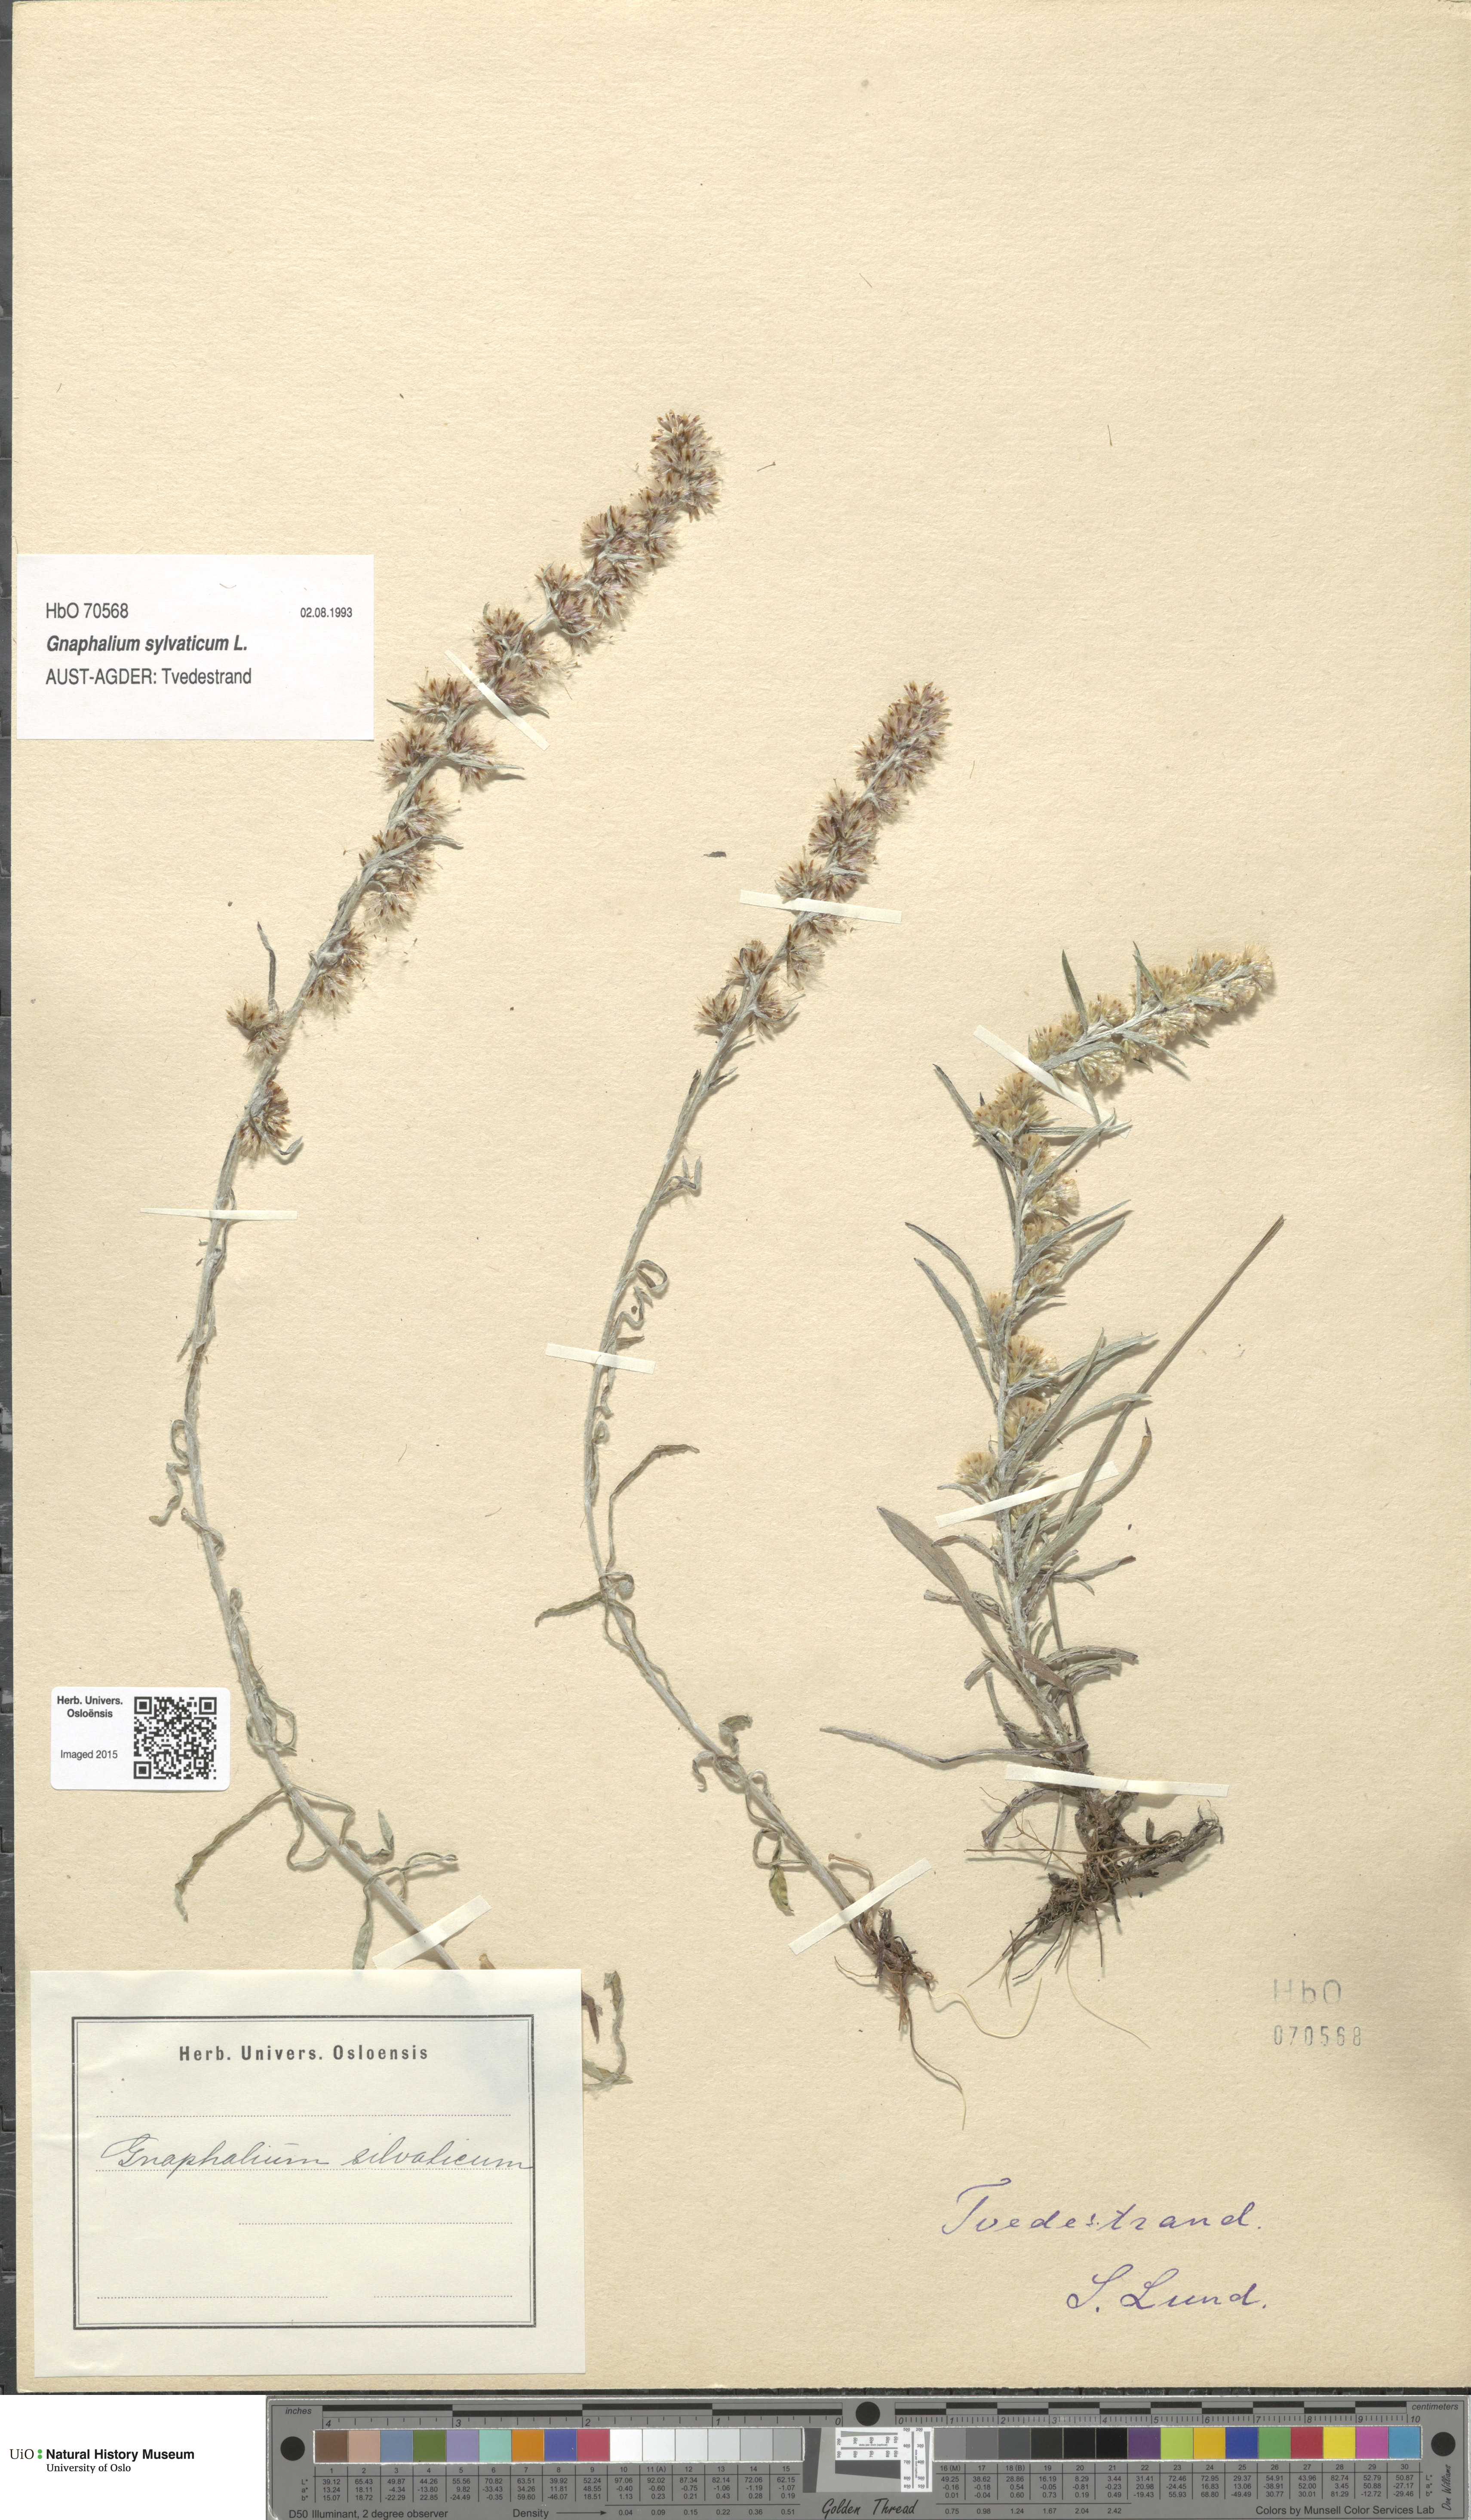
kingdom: Plantae
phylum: Tracheophyta
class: Magnoliopsida
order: Asterales
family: Asteraceae
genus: Omalotheca
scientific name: Omalotheca sylvatica
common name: Heath cudweed
